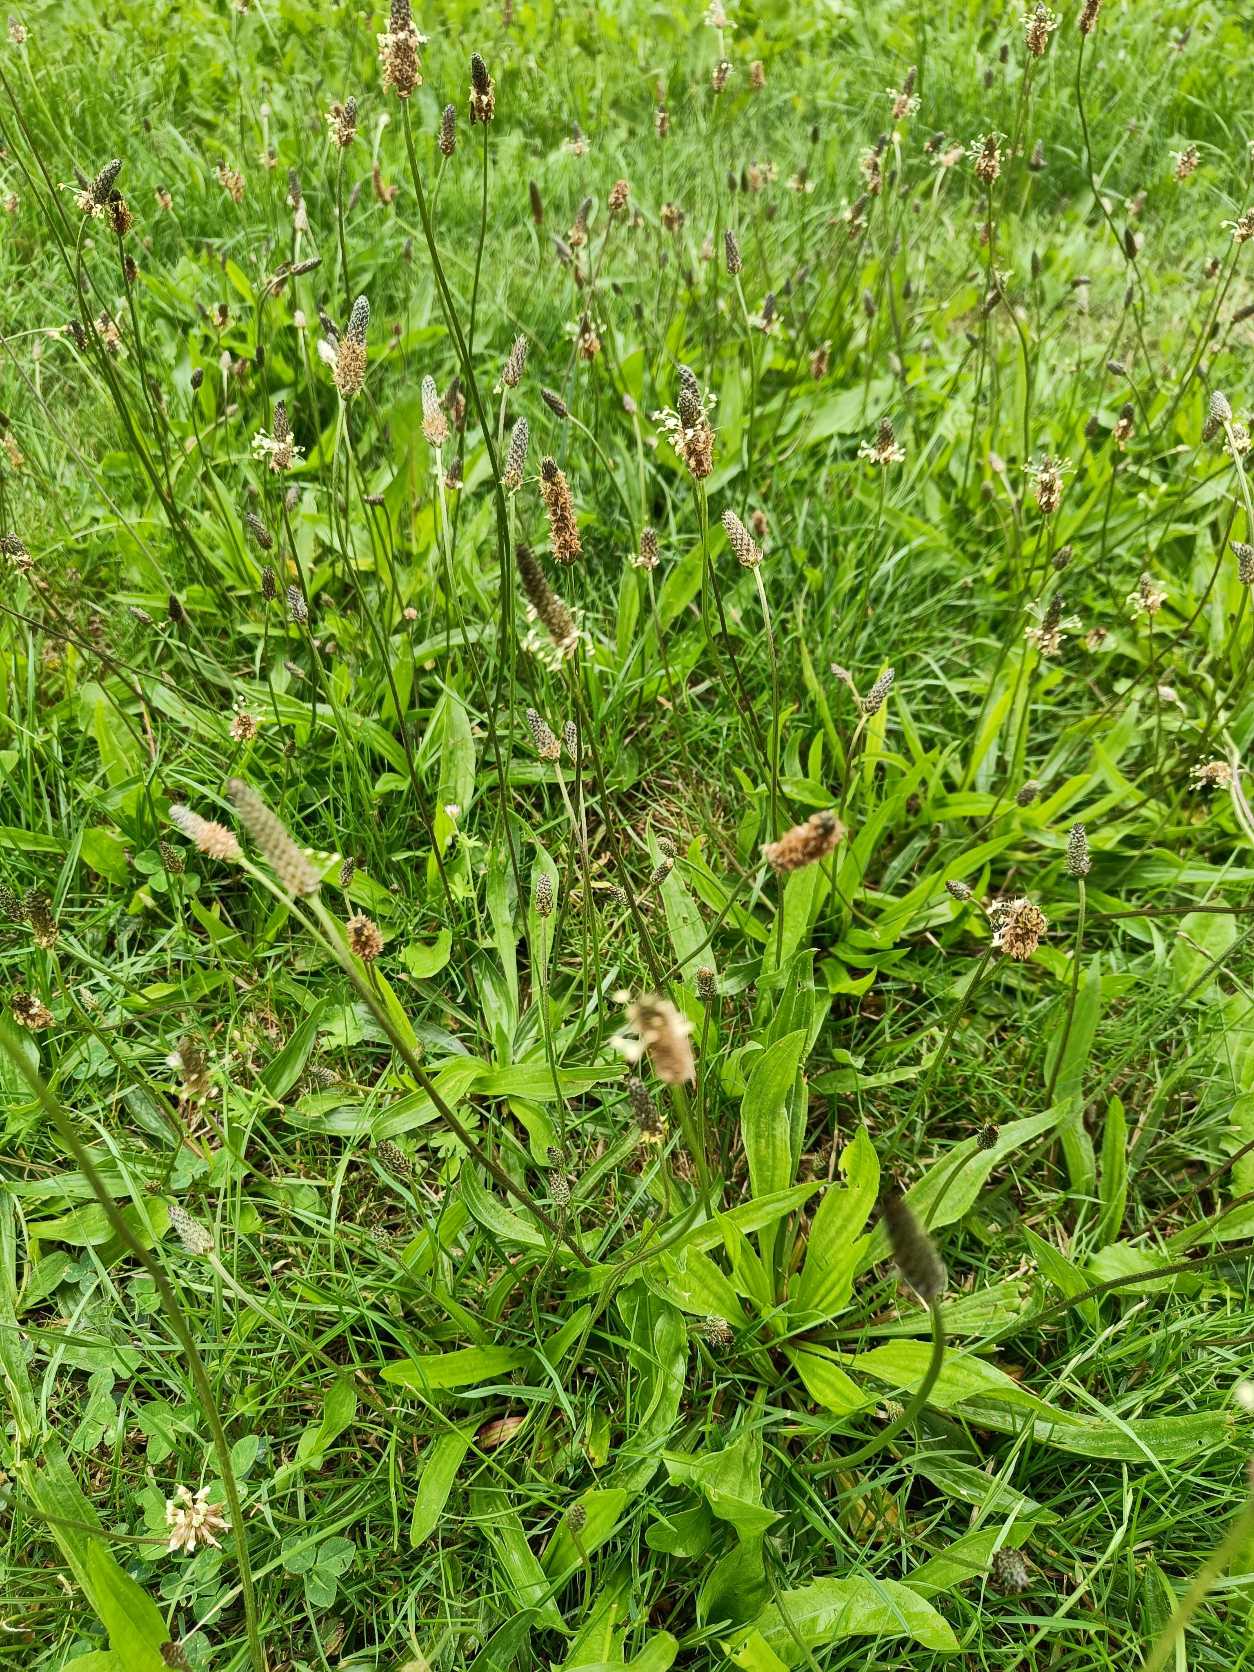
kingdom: Plantae
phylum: Tracheophyta
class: Magnoliopsida
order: Lamiales
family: Plantaginaceae
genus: Plantago
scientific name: Plantago lanceolata
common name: Lancet-vejbred
